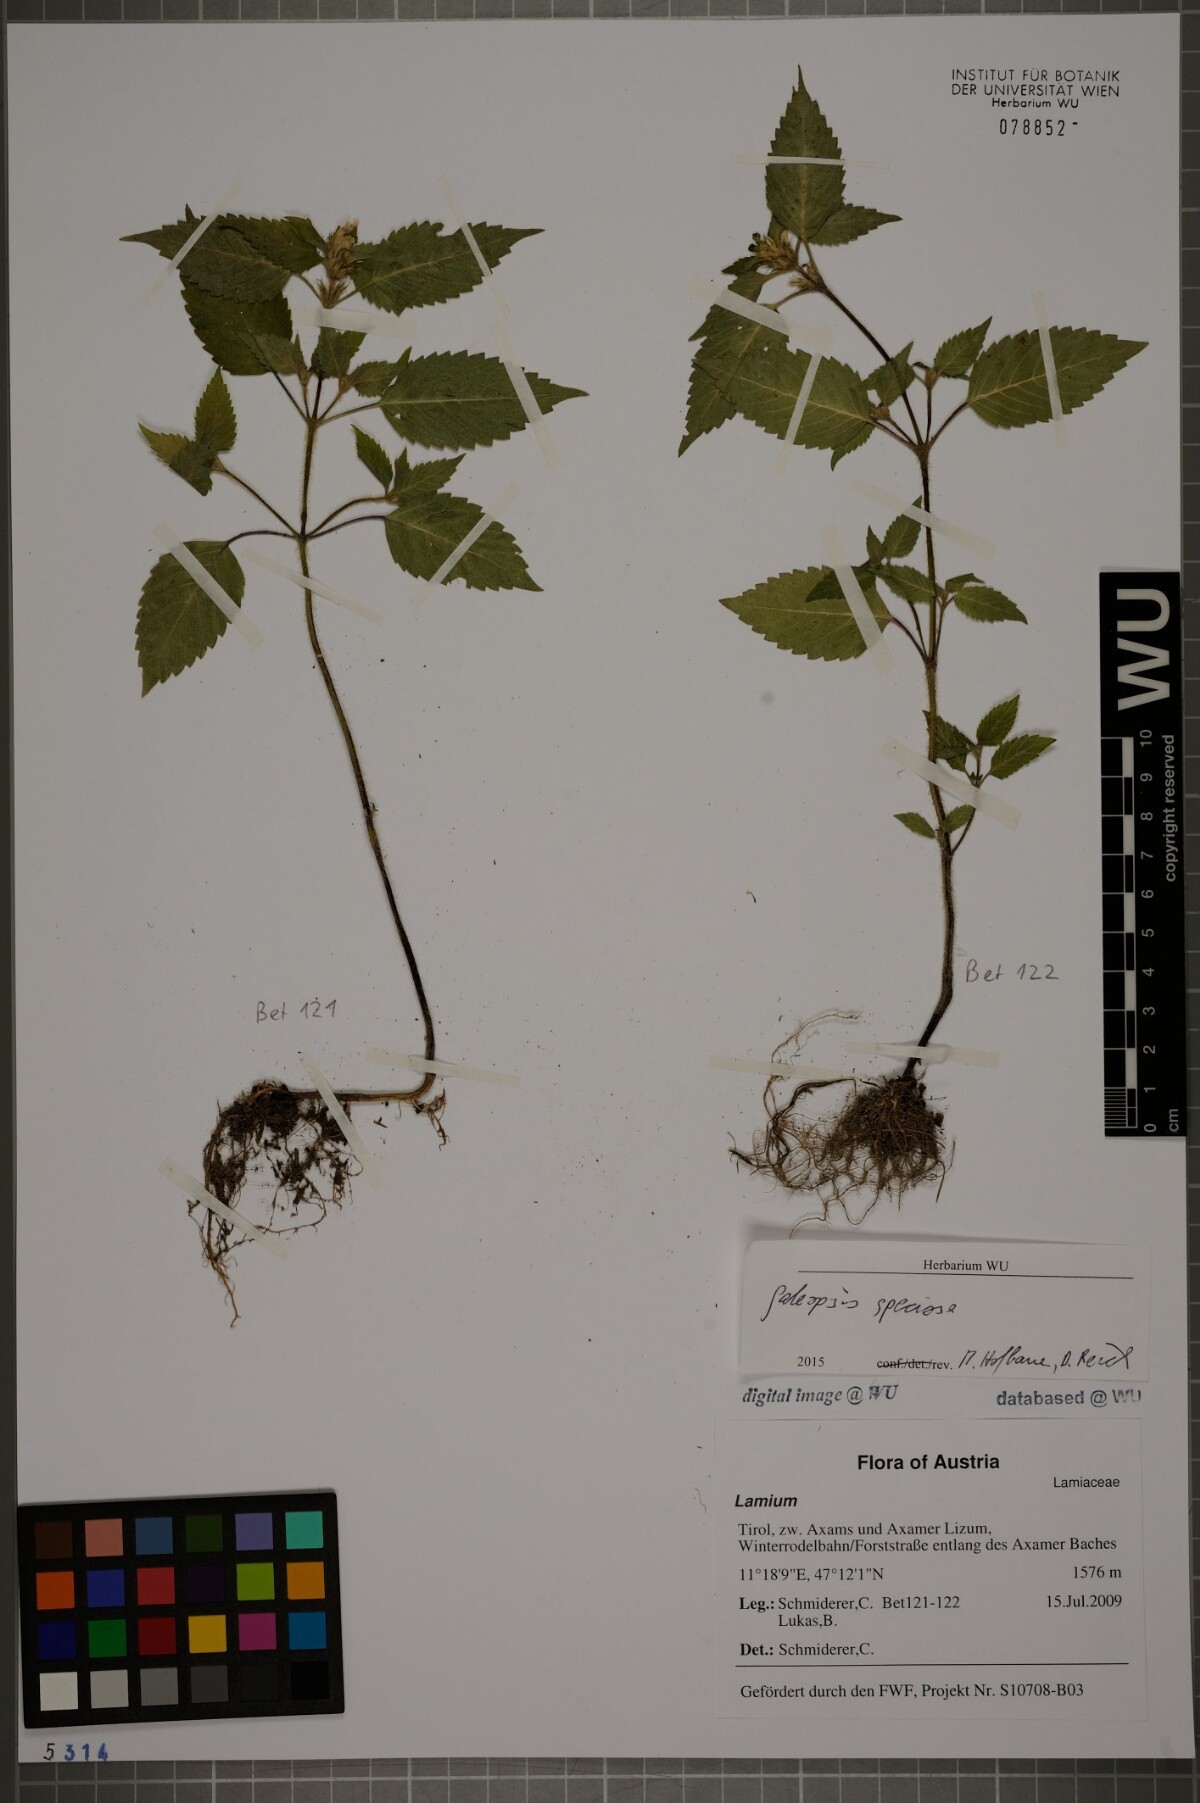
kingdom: Plantae
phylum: Tracheophyta
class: Magnoliopsida
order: Lamiales
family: Lamiaceae
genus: Galeopsis
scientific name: Galeopsis speciosa
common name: Large-flowered hemp-nettle
